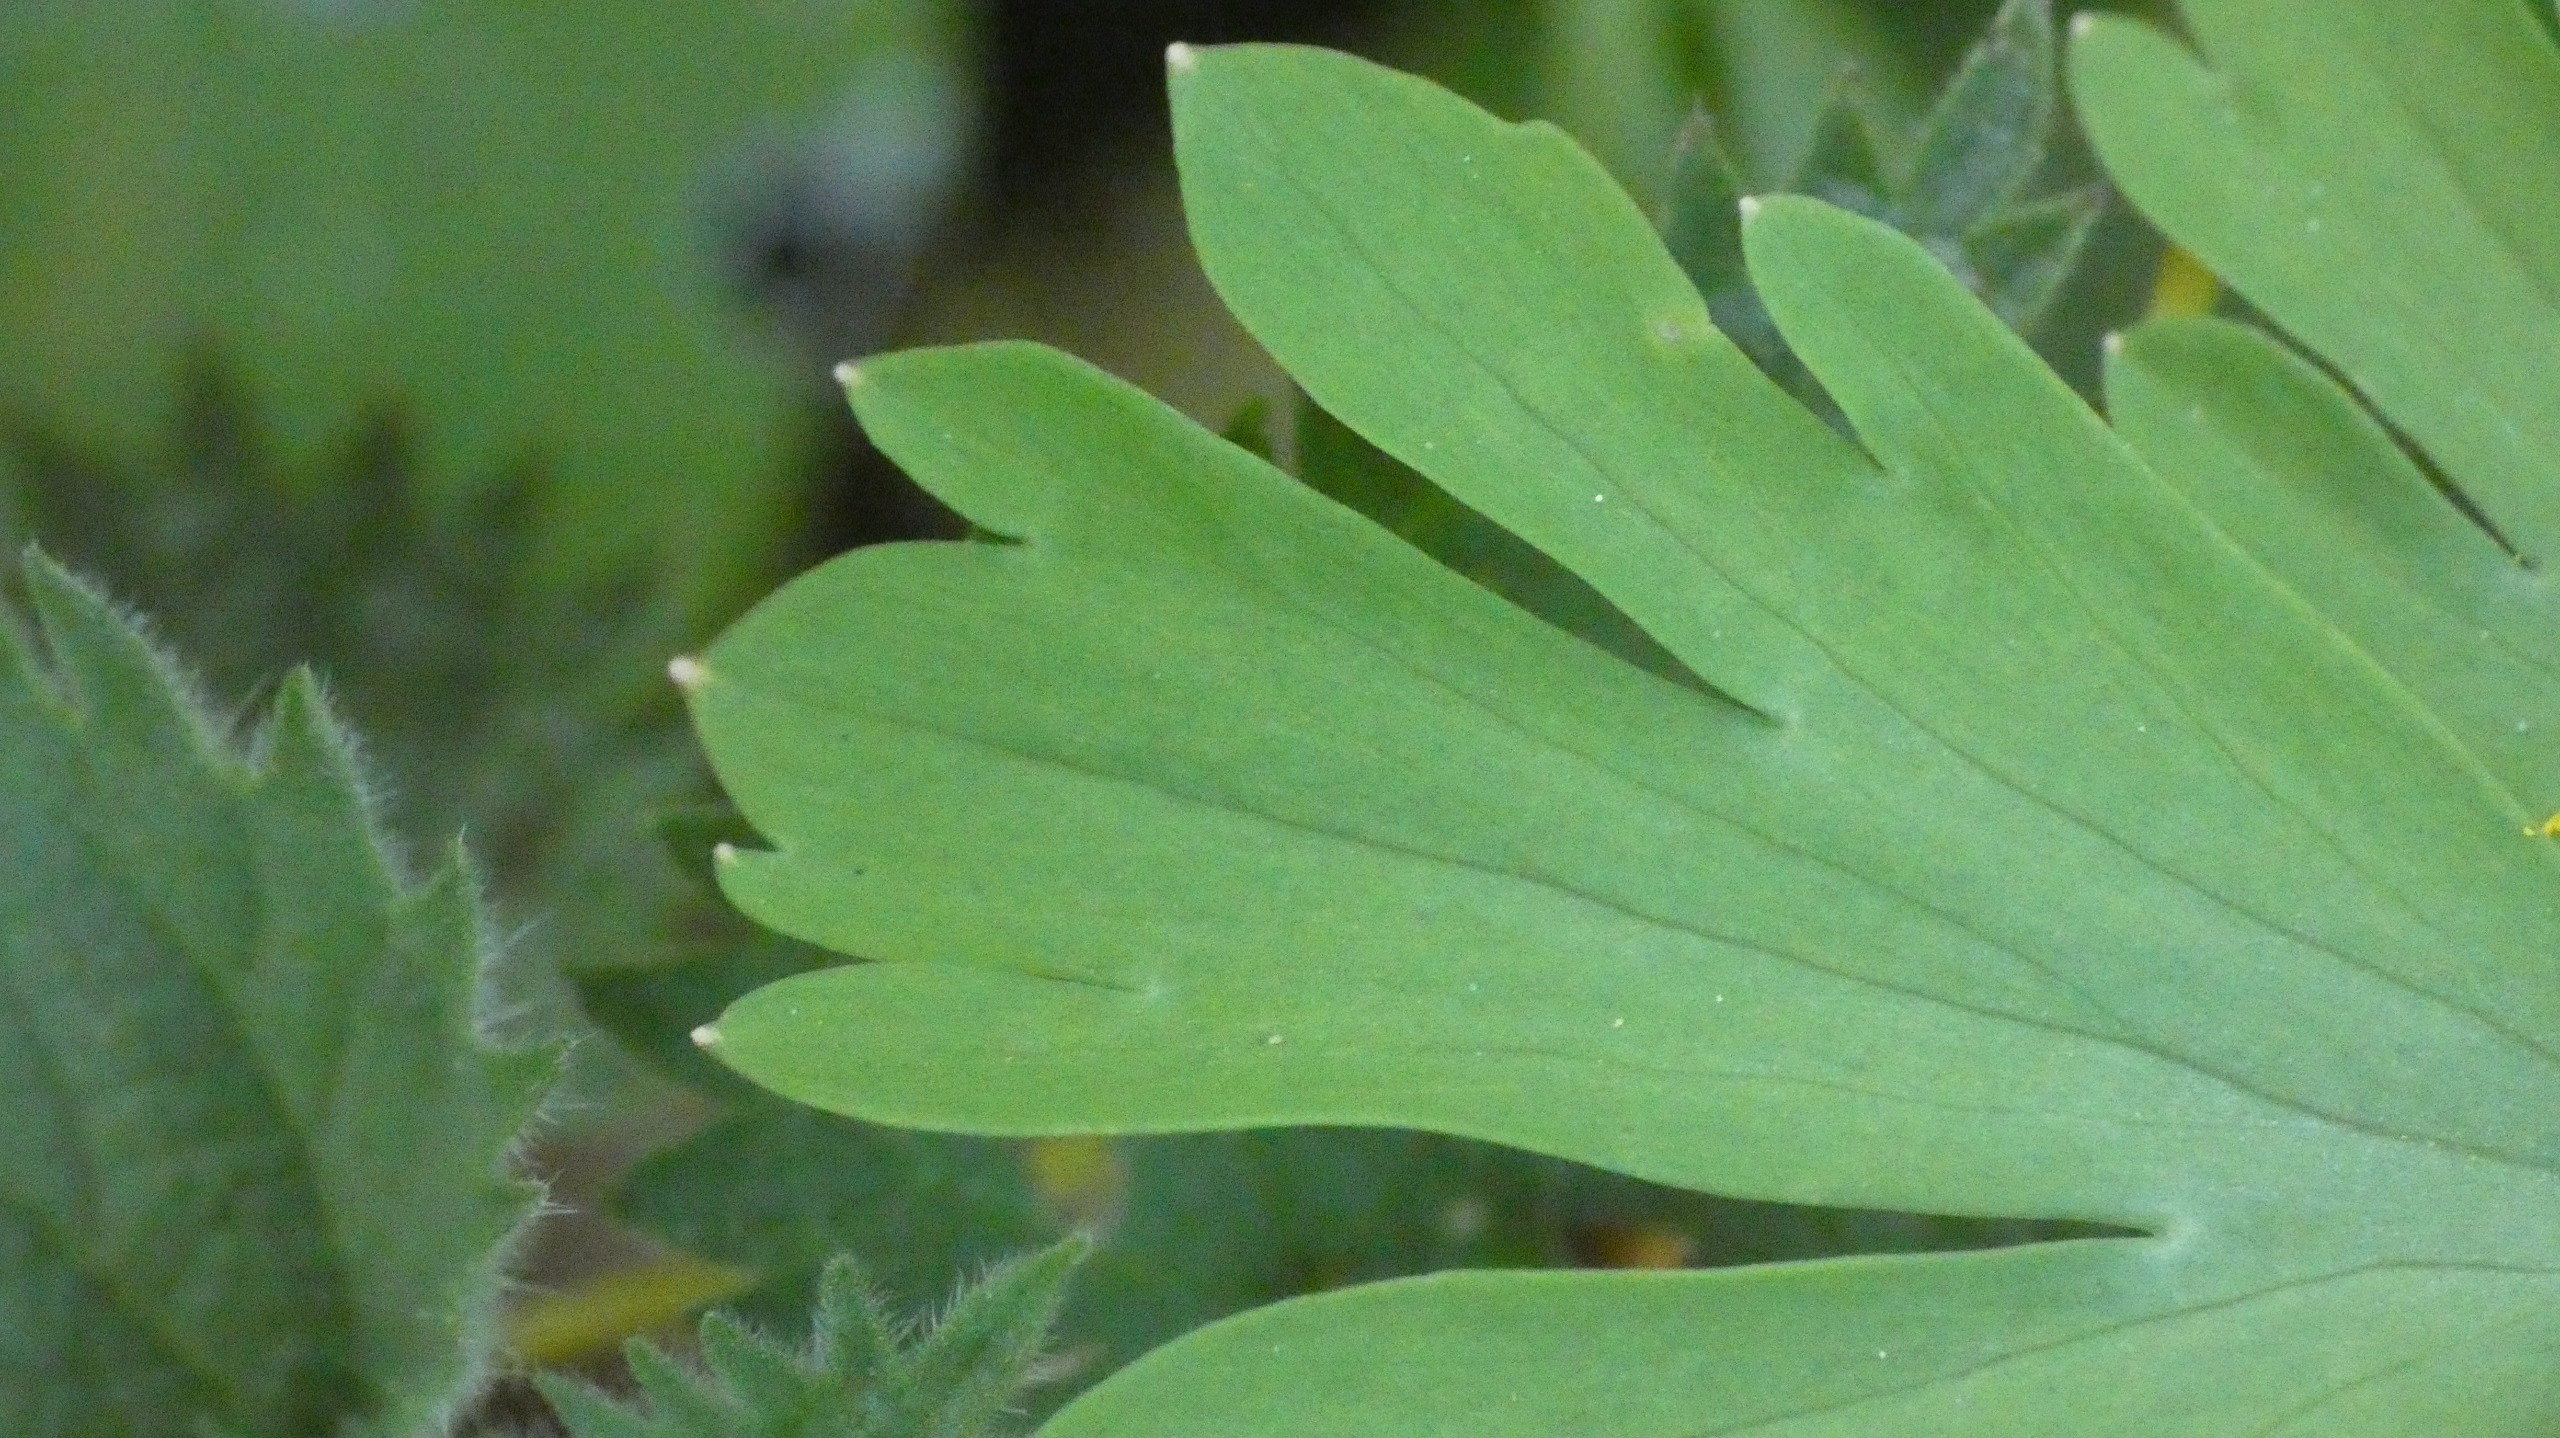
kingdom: Plantae
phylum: Tracheophyta
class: Magnoliopsida
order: Ranunculales
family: Papaveraceae
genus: Corydalis
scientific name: Corydalis cava
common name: Hulrodet lærkespore
